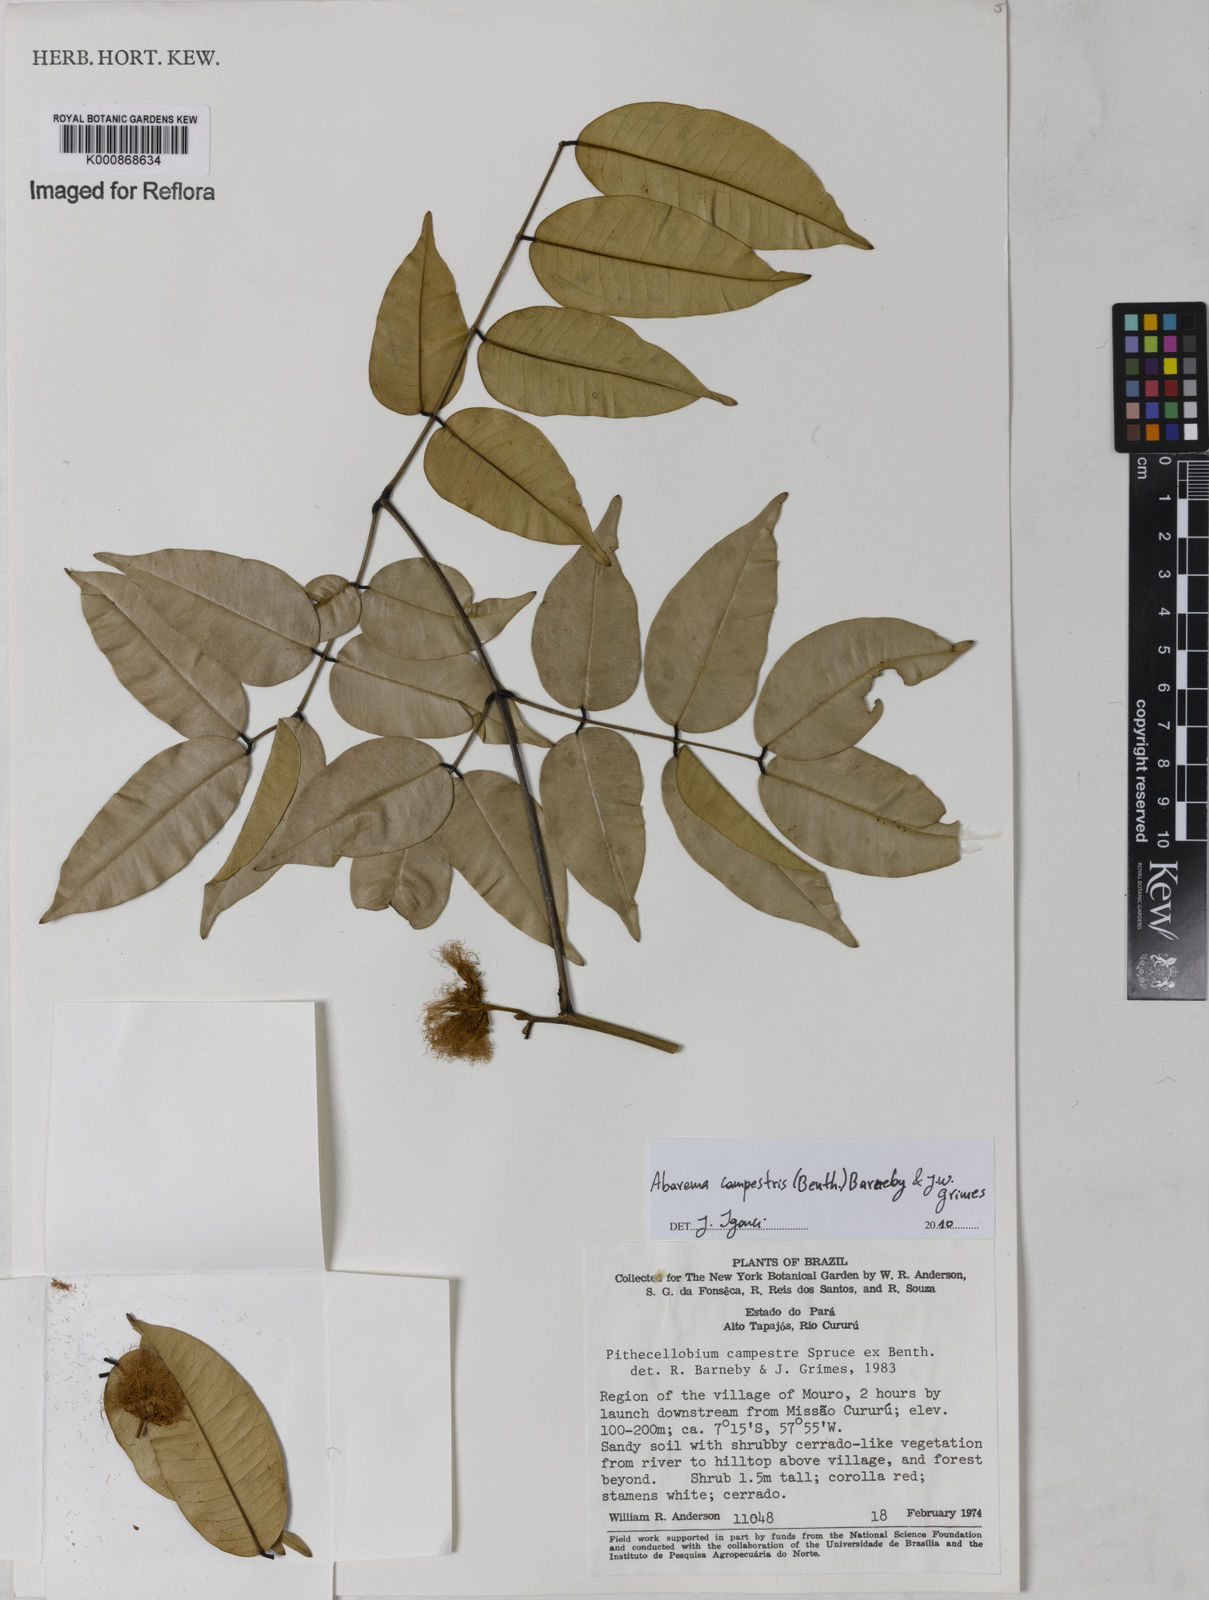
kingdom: Plantae
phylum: Tracheophyta
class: Magnoliopsida
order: Fabales
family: Fabaceae
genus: Jupunba
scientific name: Jupunba campestris
